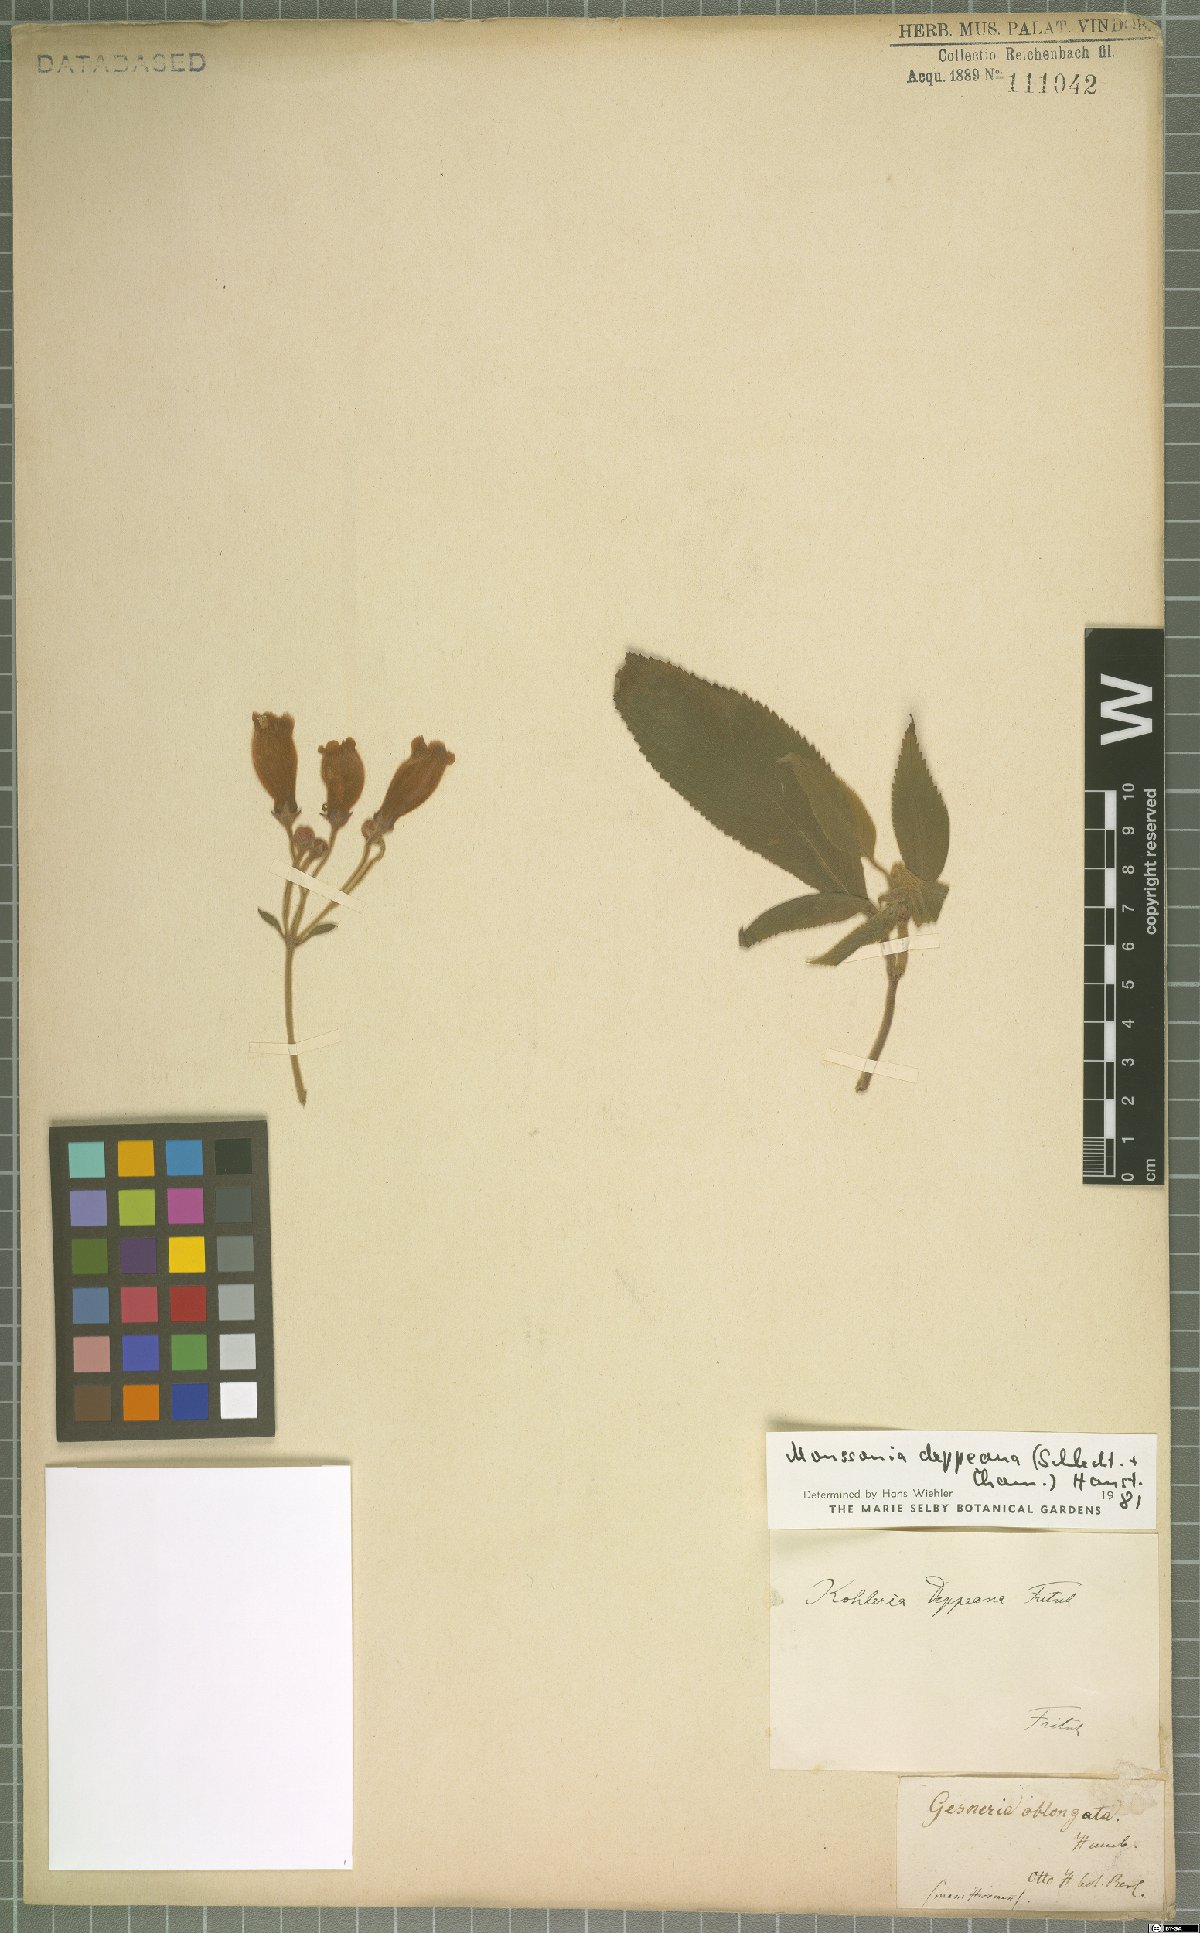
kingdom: Plantae
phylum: Tracheophyta
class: Magnoliopsida
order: Lamiales
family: Gesneriaceae
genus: Moussonia
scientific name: Moussonia deppeana
